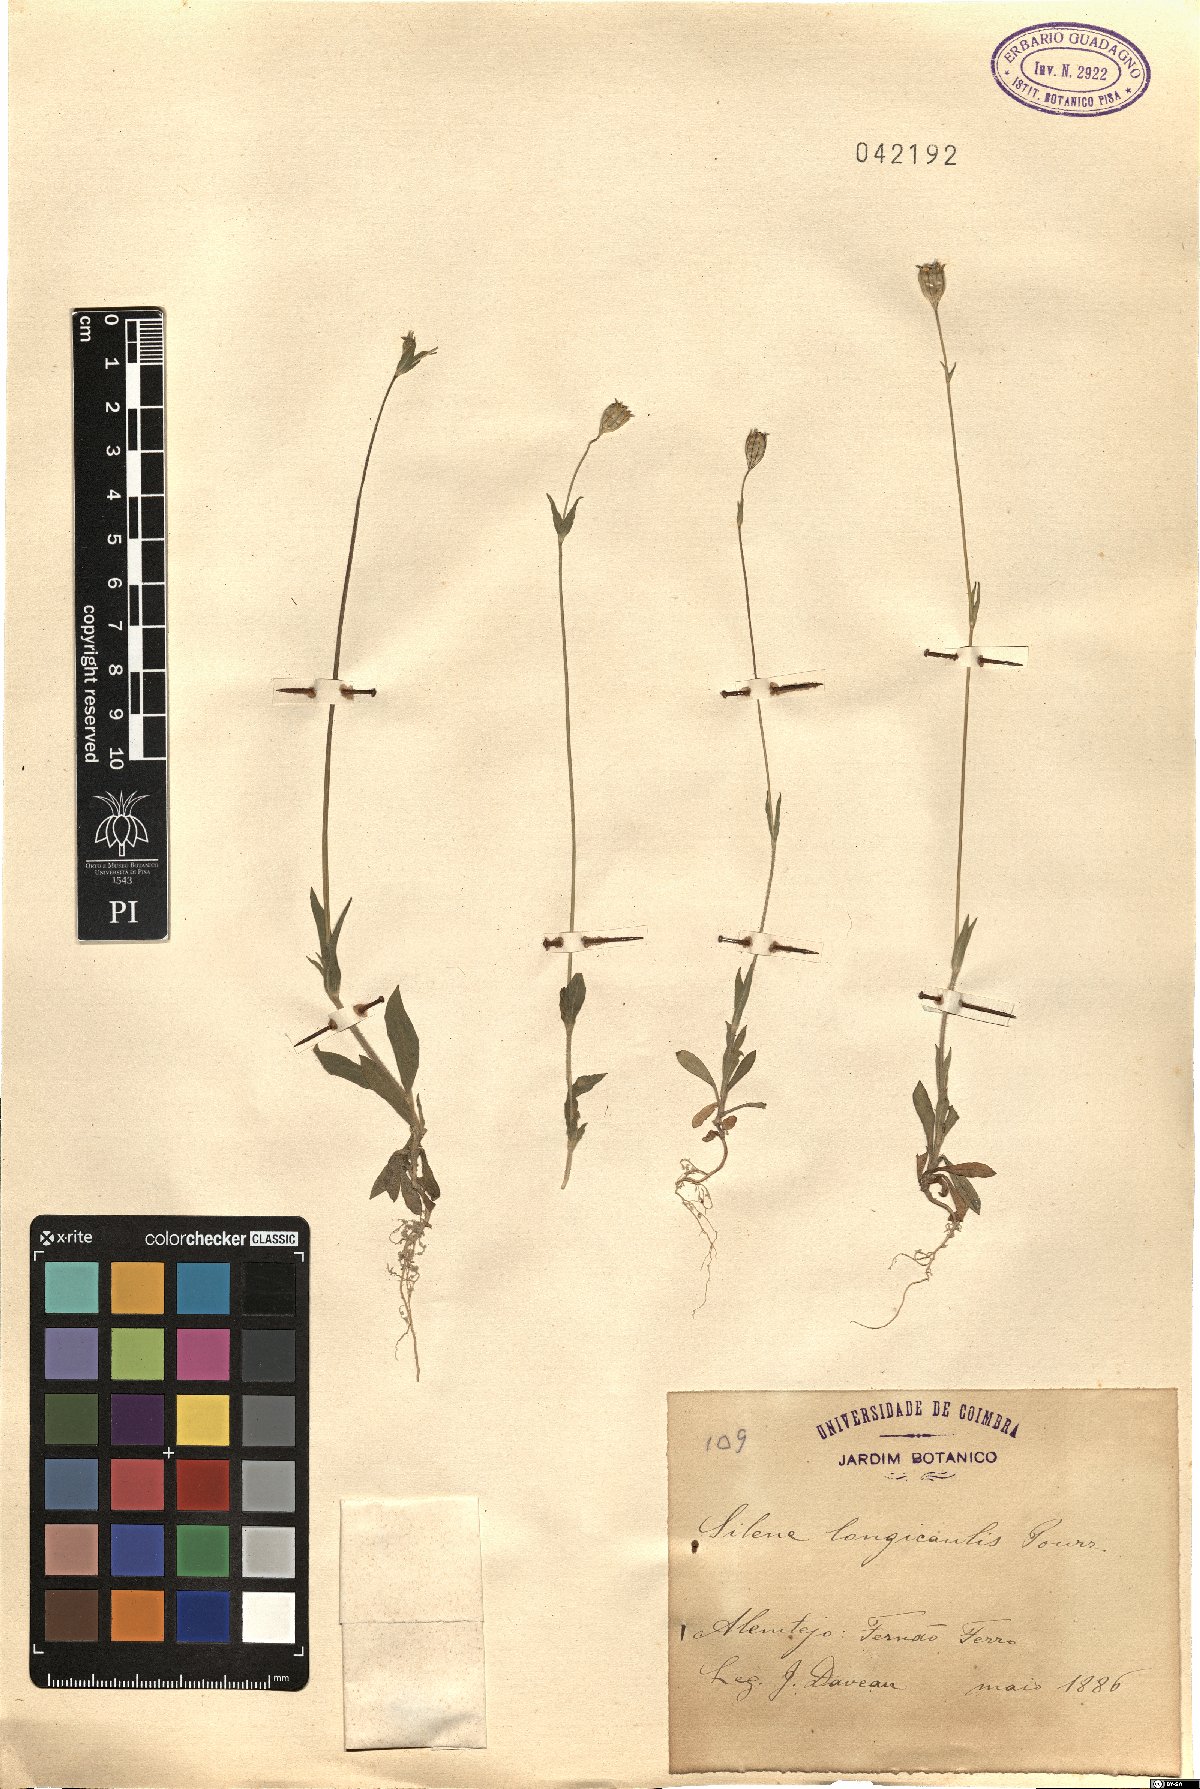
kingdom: Plantae
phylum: Tracheophyta
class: Magnoliopsida
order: Caryophyllales
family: Caryophyllaceae
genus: Silene
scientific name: Silene gracilis
